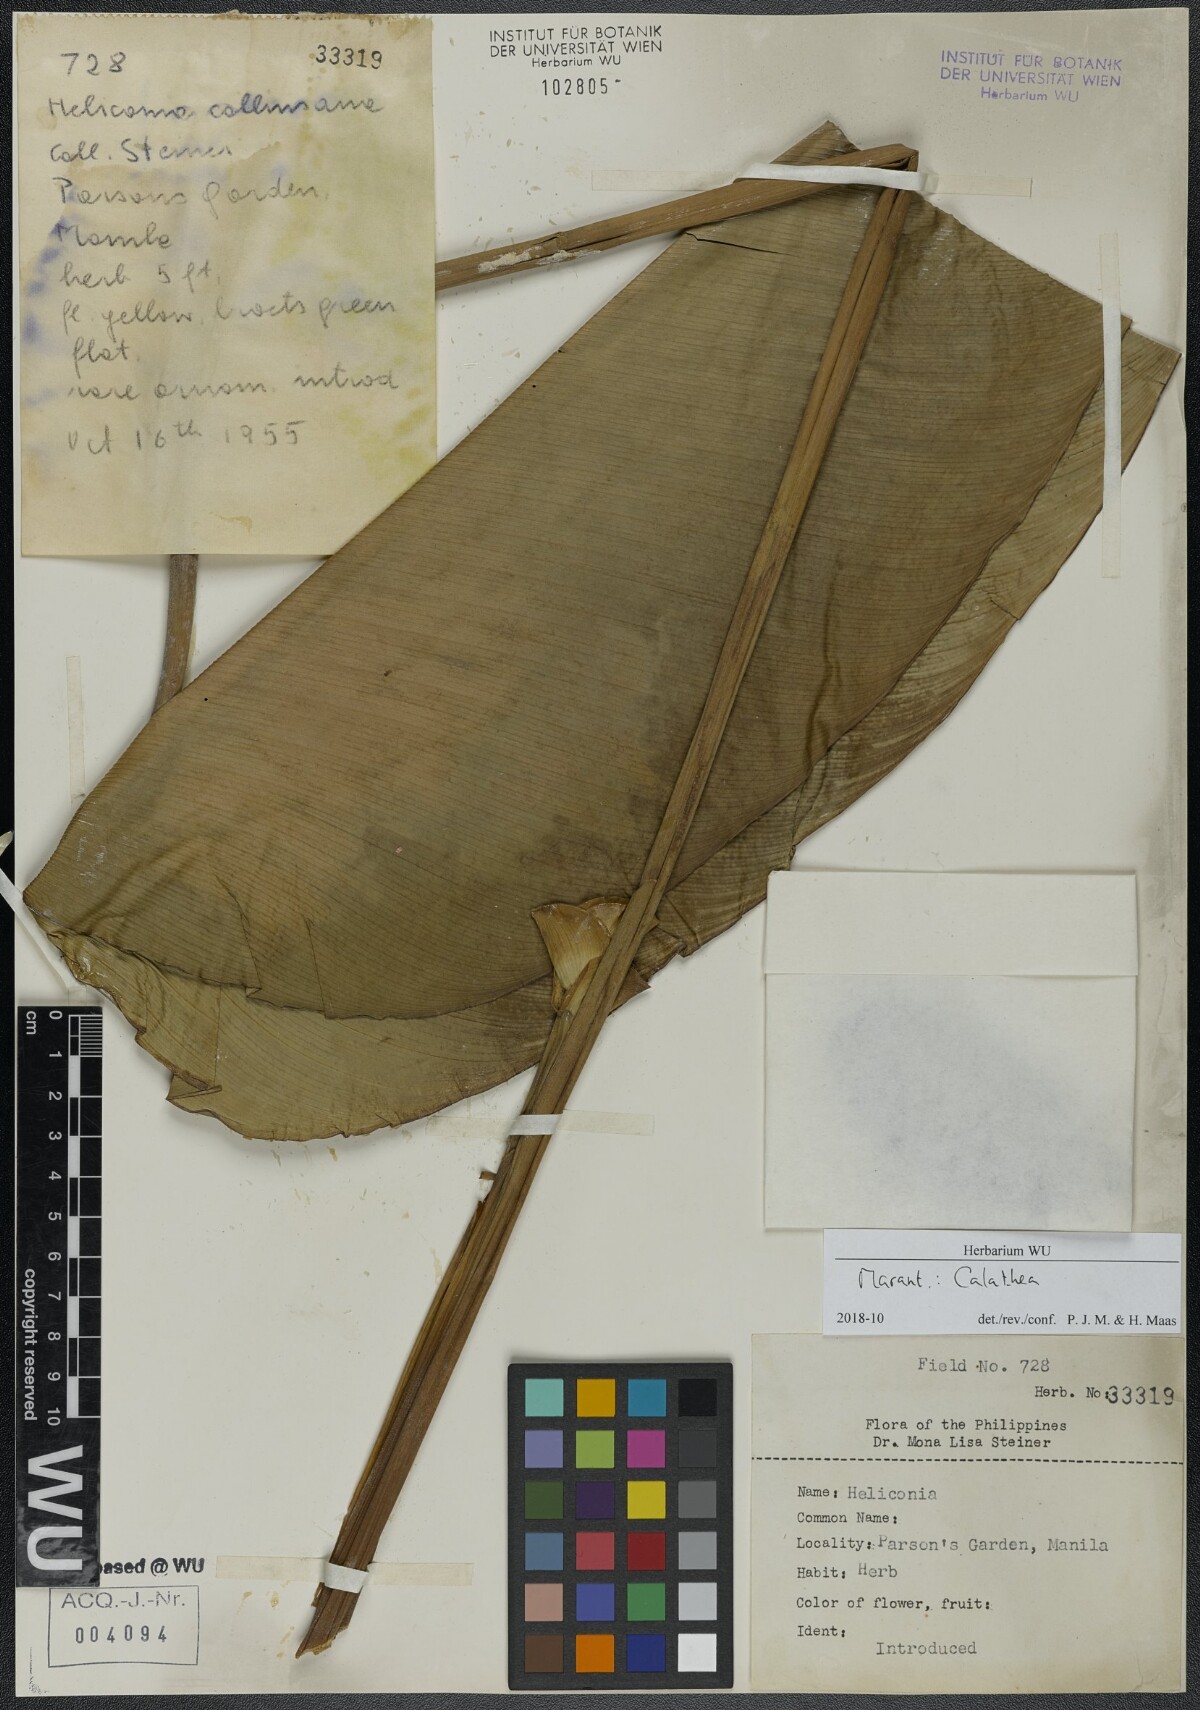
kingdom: Plantae
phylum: Tracheophyta
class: Liliopsida
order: Zingiberales
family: Marantaceae
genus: Calathea
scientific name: Calathea
